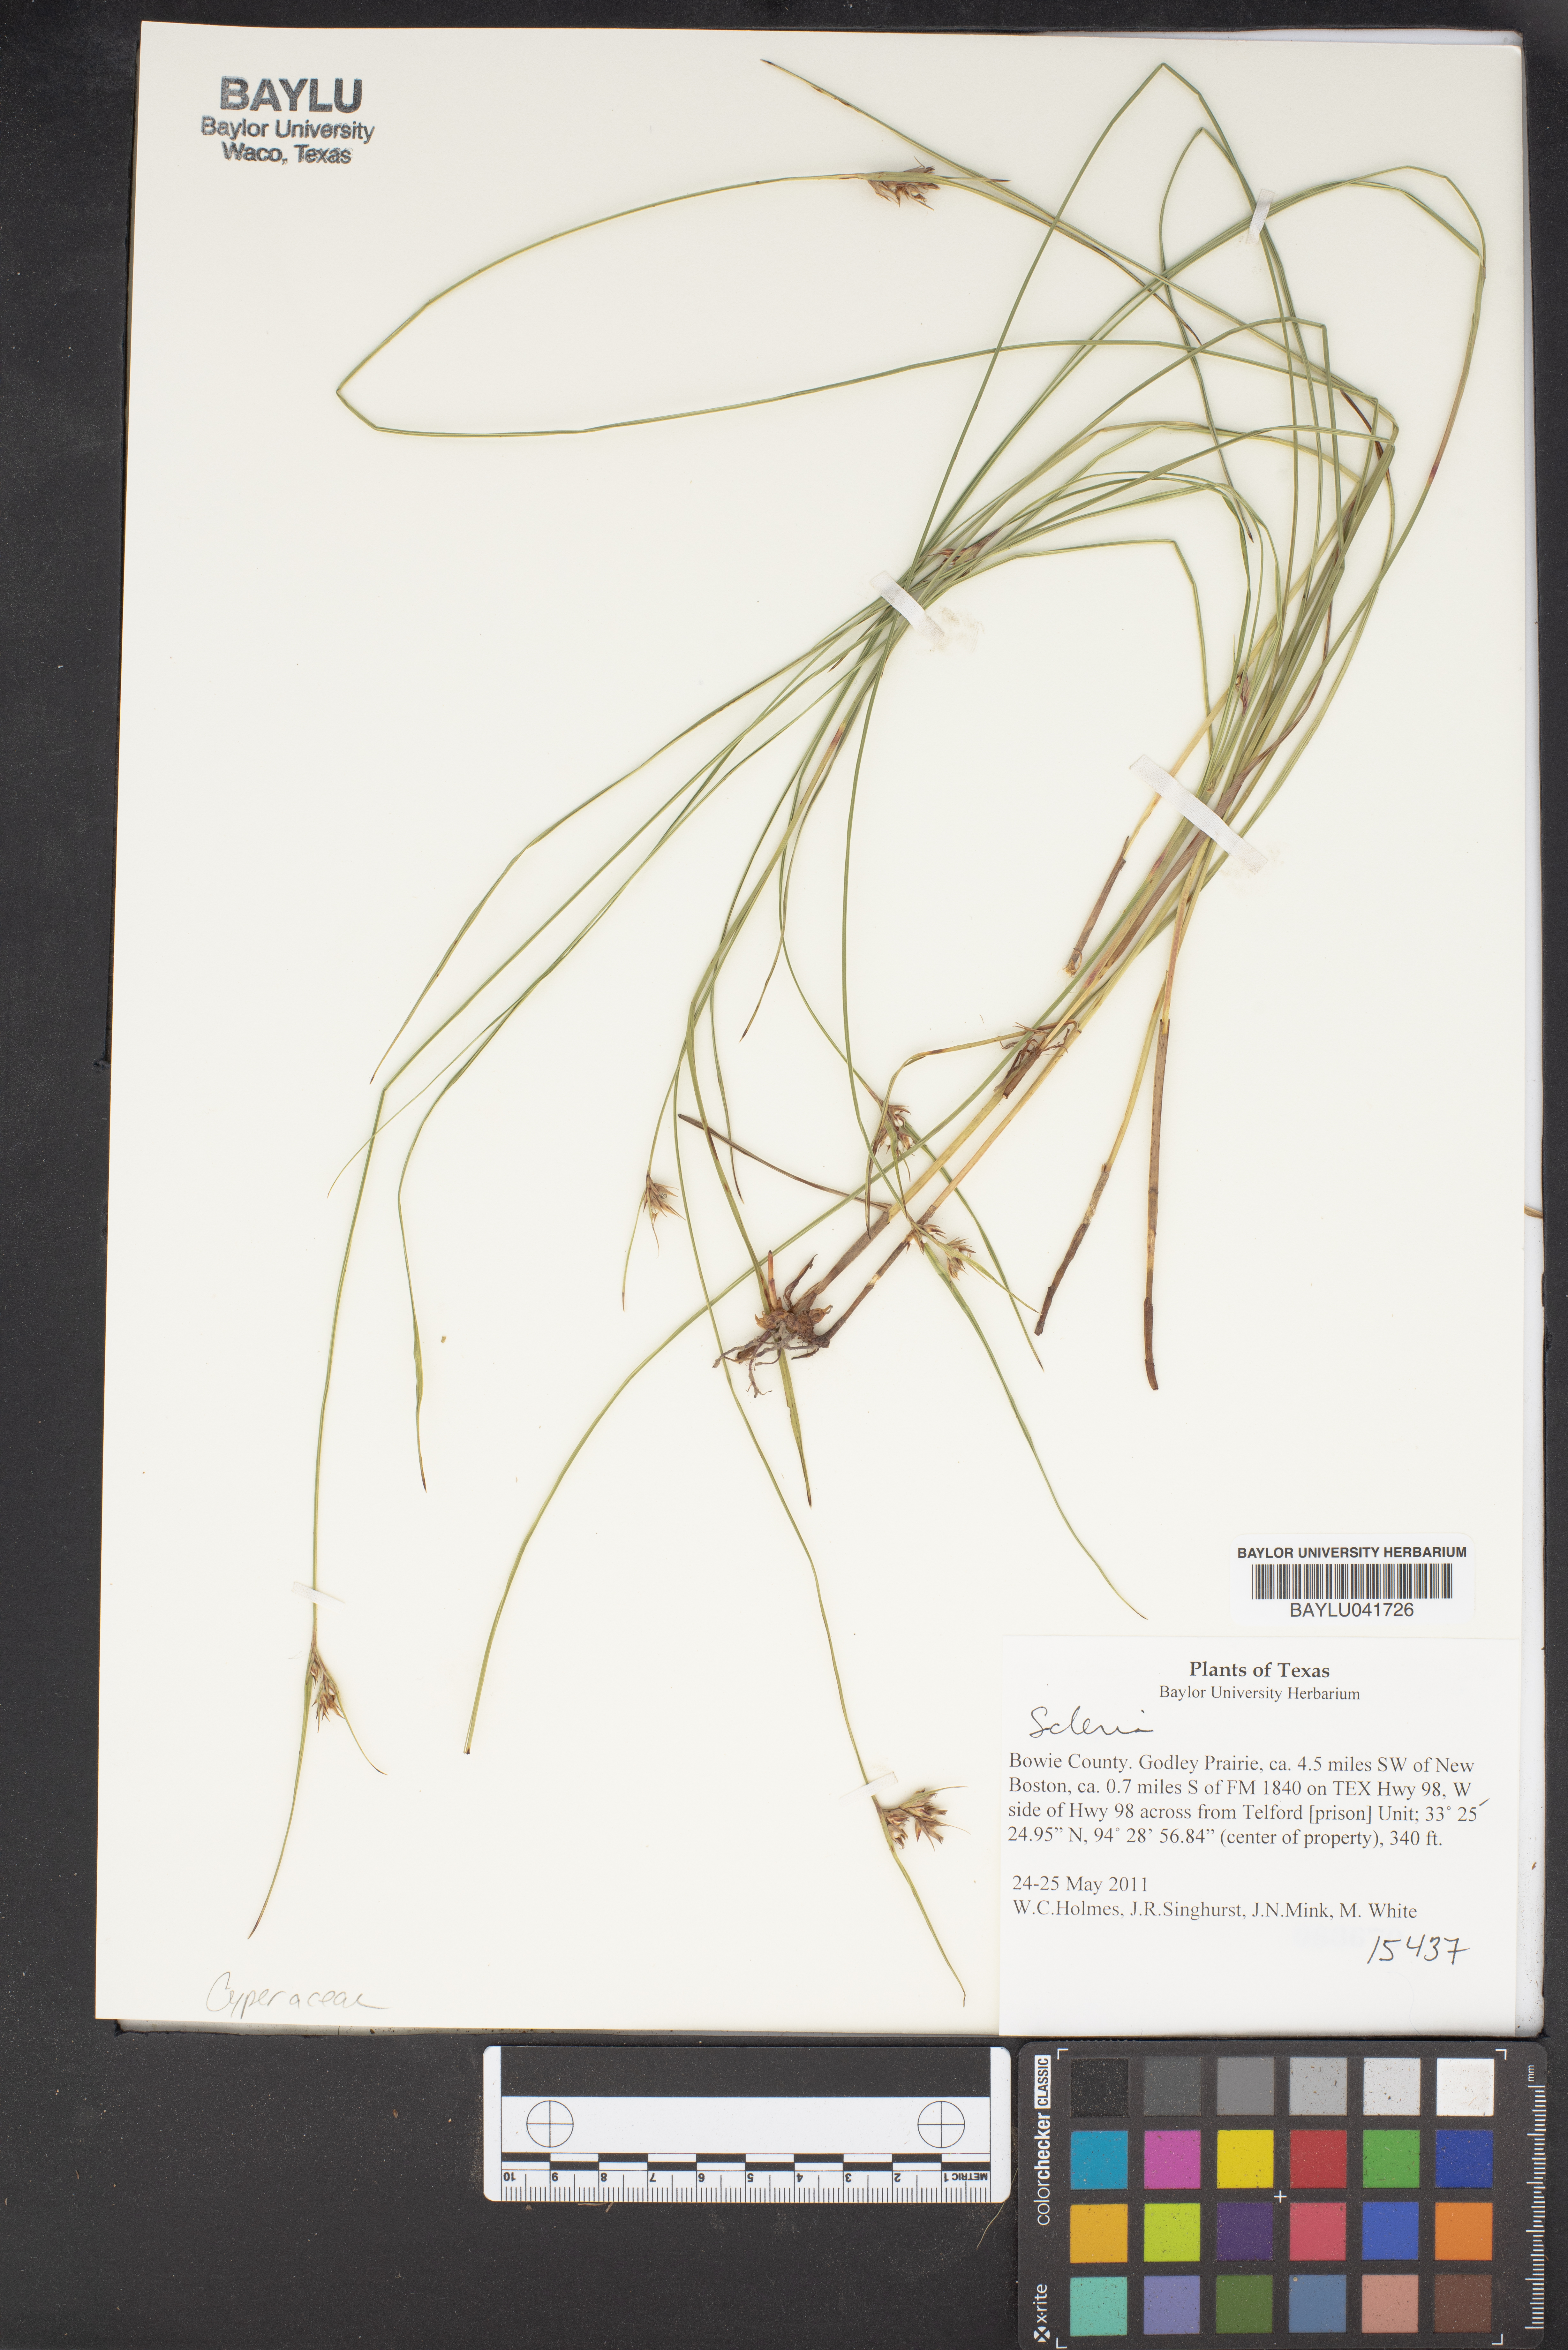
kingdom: Plantae
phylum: Tracheophyta
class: Liliopsida
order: Poales
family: Cyperaceae
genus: Scleria
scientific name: Scleria
